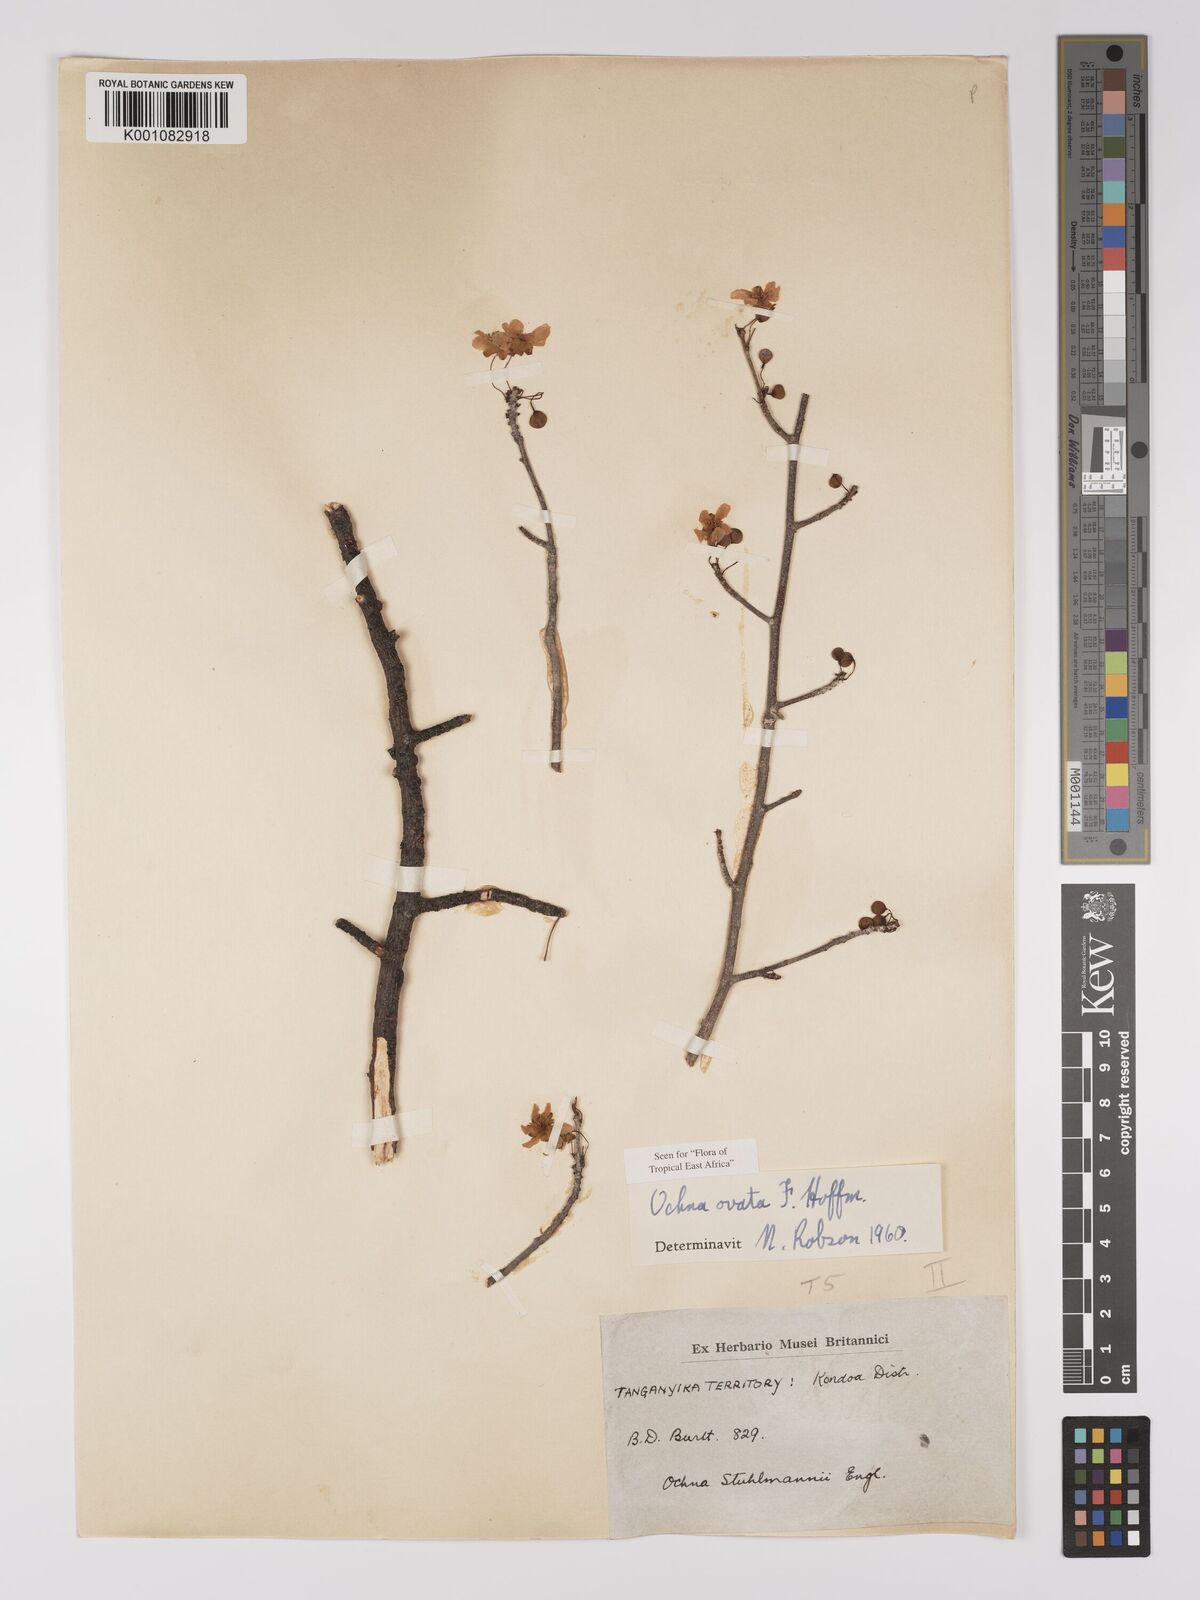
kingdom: Plantae
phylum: Tracheophyta
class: Magnoliopsida
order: Malpighiales
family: Ochnaceae
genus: Ochna
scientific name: Ochna ovata
